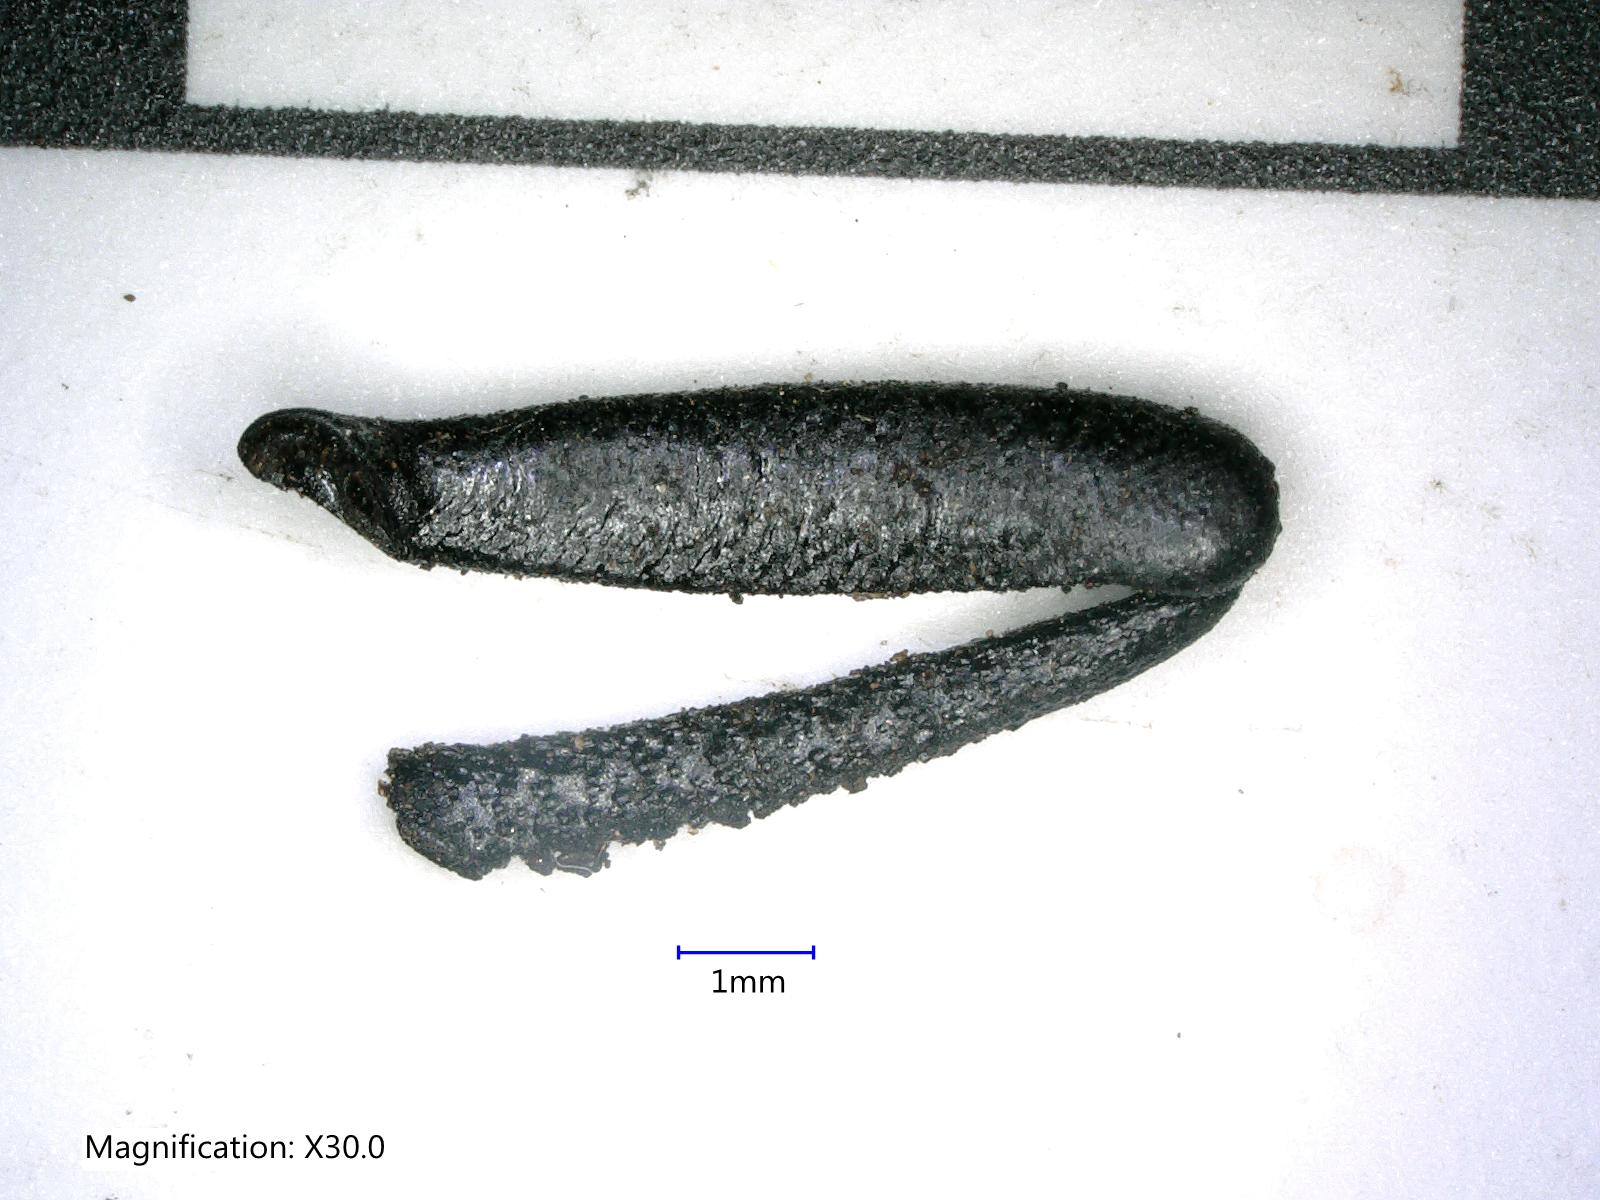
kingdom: Animalia
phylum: Arthropoda
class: Insecta
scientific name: Insecta
